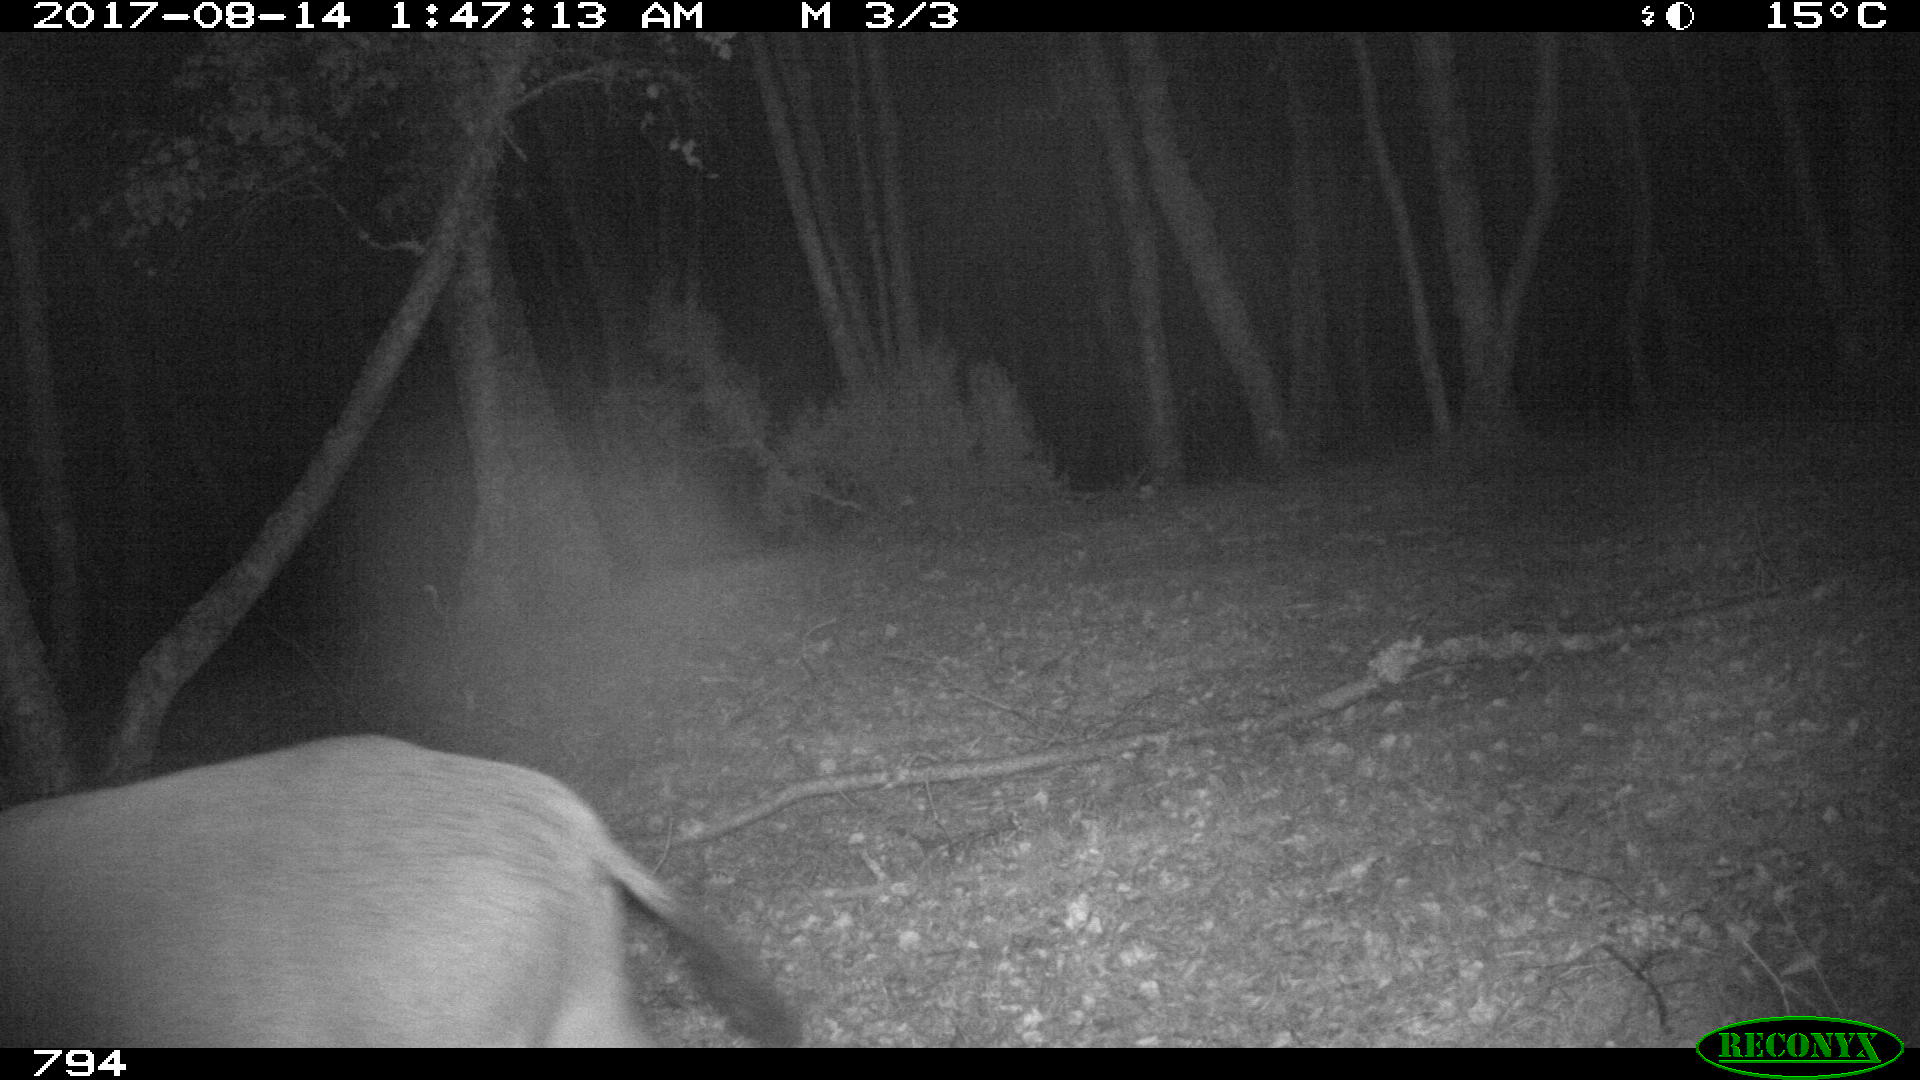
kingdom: Animalia
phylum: Chordata
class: Mammalia
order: Artiodactyla
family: Suidae
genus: Sus
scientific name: Sus scrofa
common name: Wild boar
